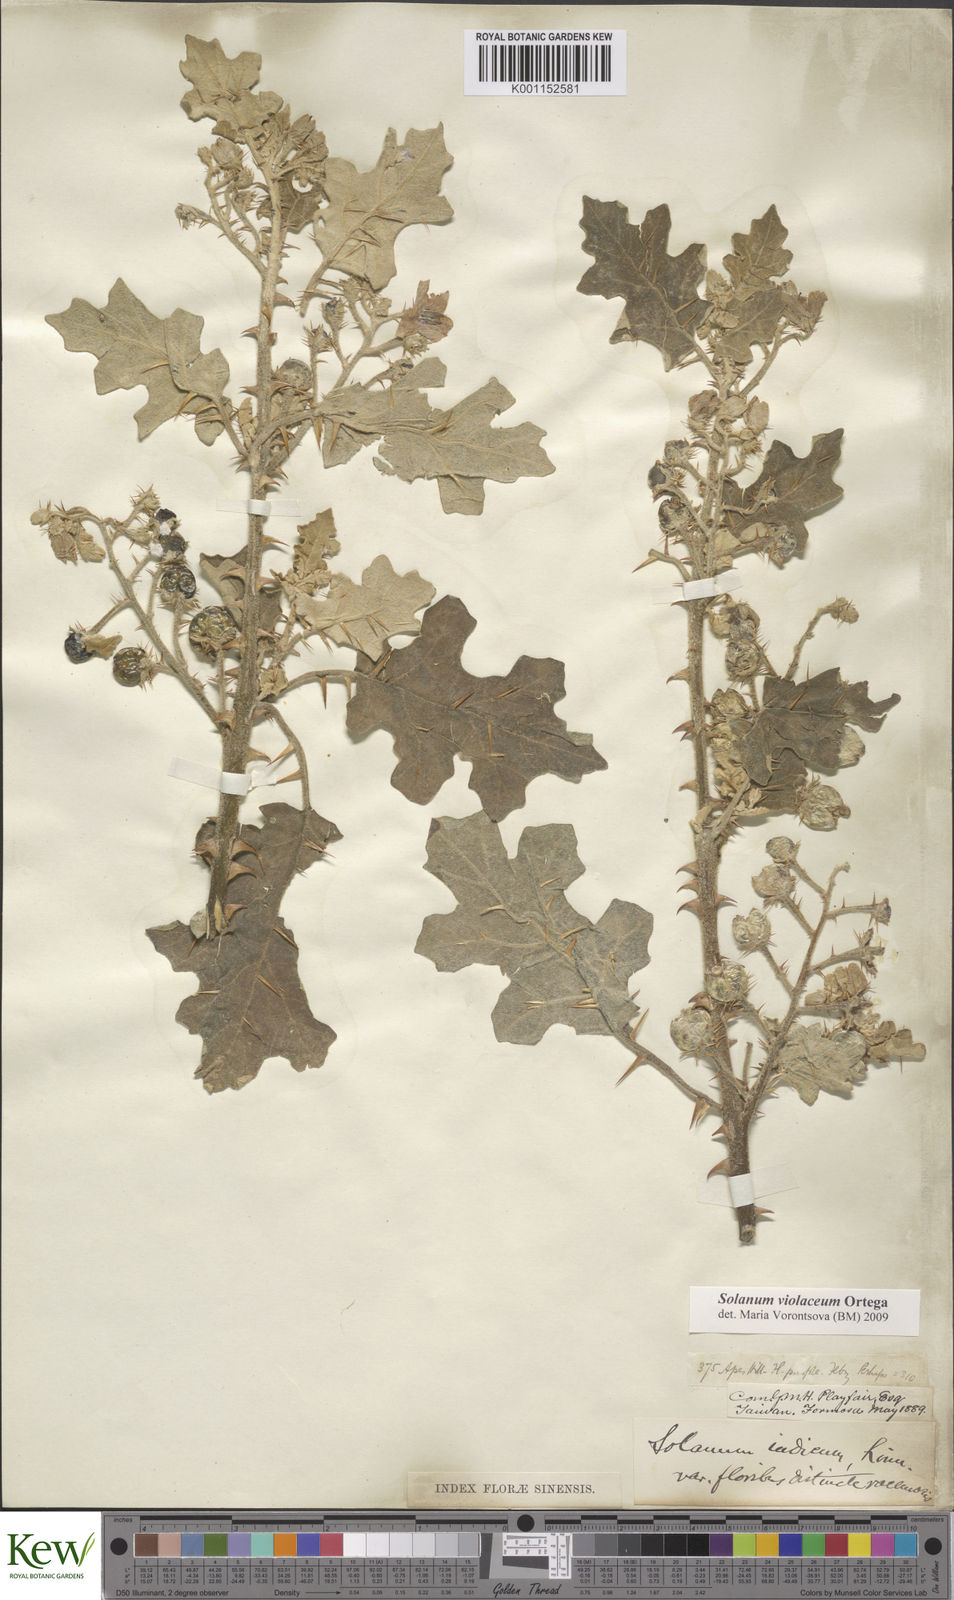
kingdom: Plantae
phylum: Tracheophyta
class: Magnoliopsida
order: Solanales
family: Solanaceae
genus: Solanum
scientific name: Solanum violaceum
